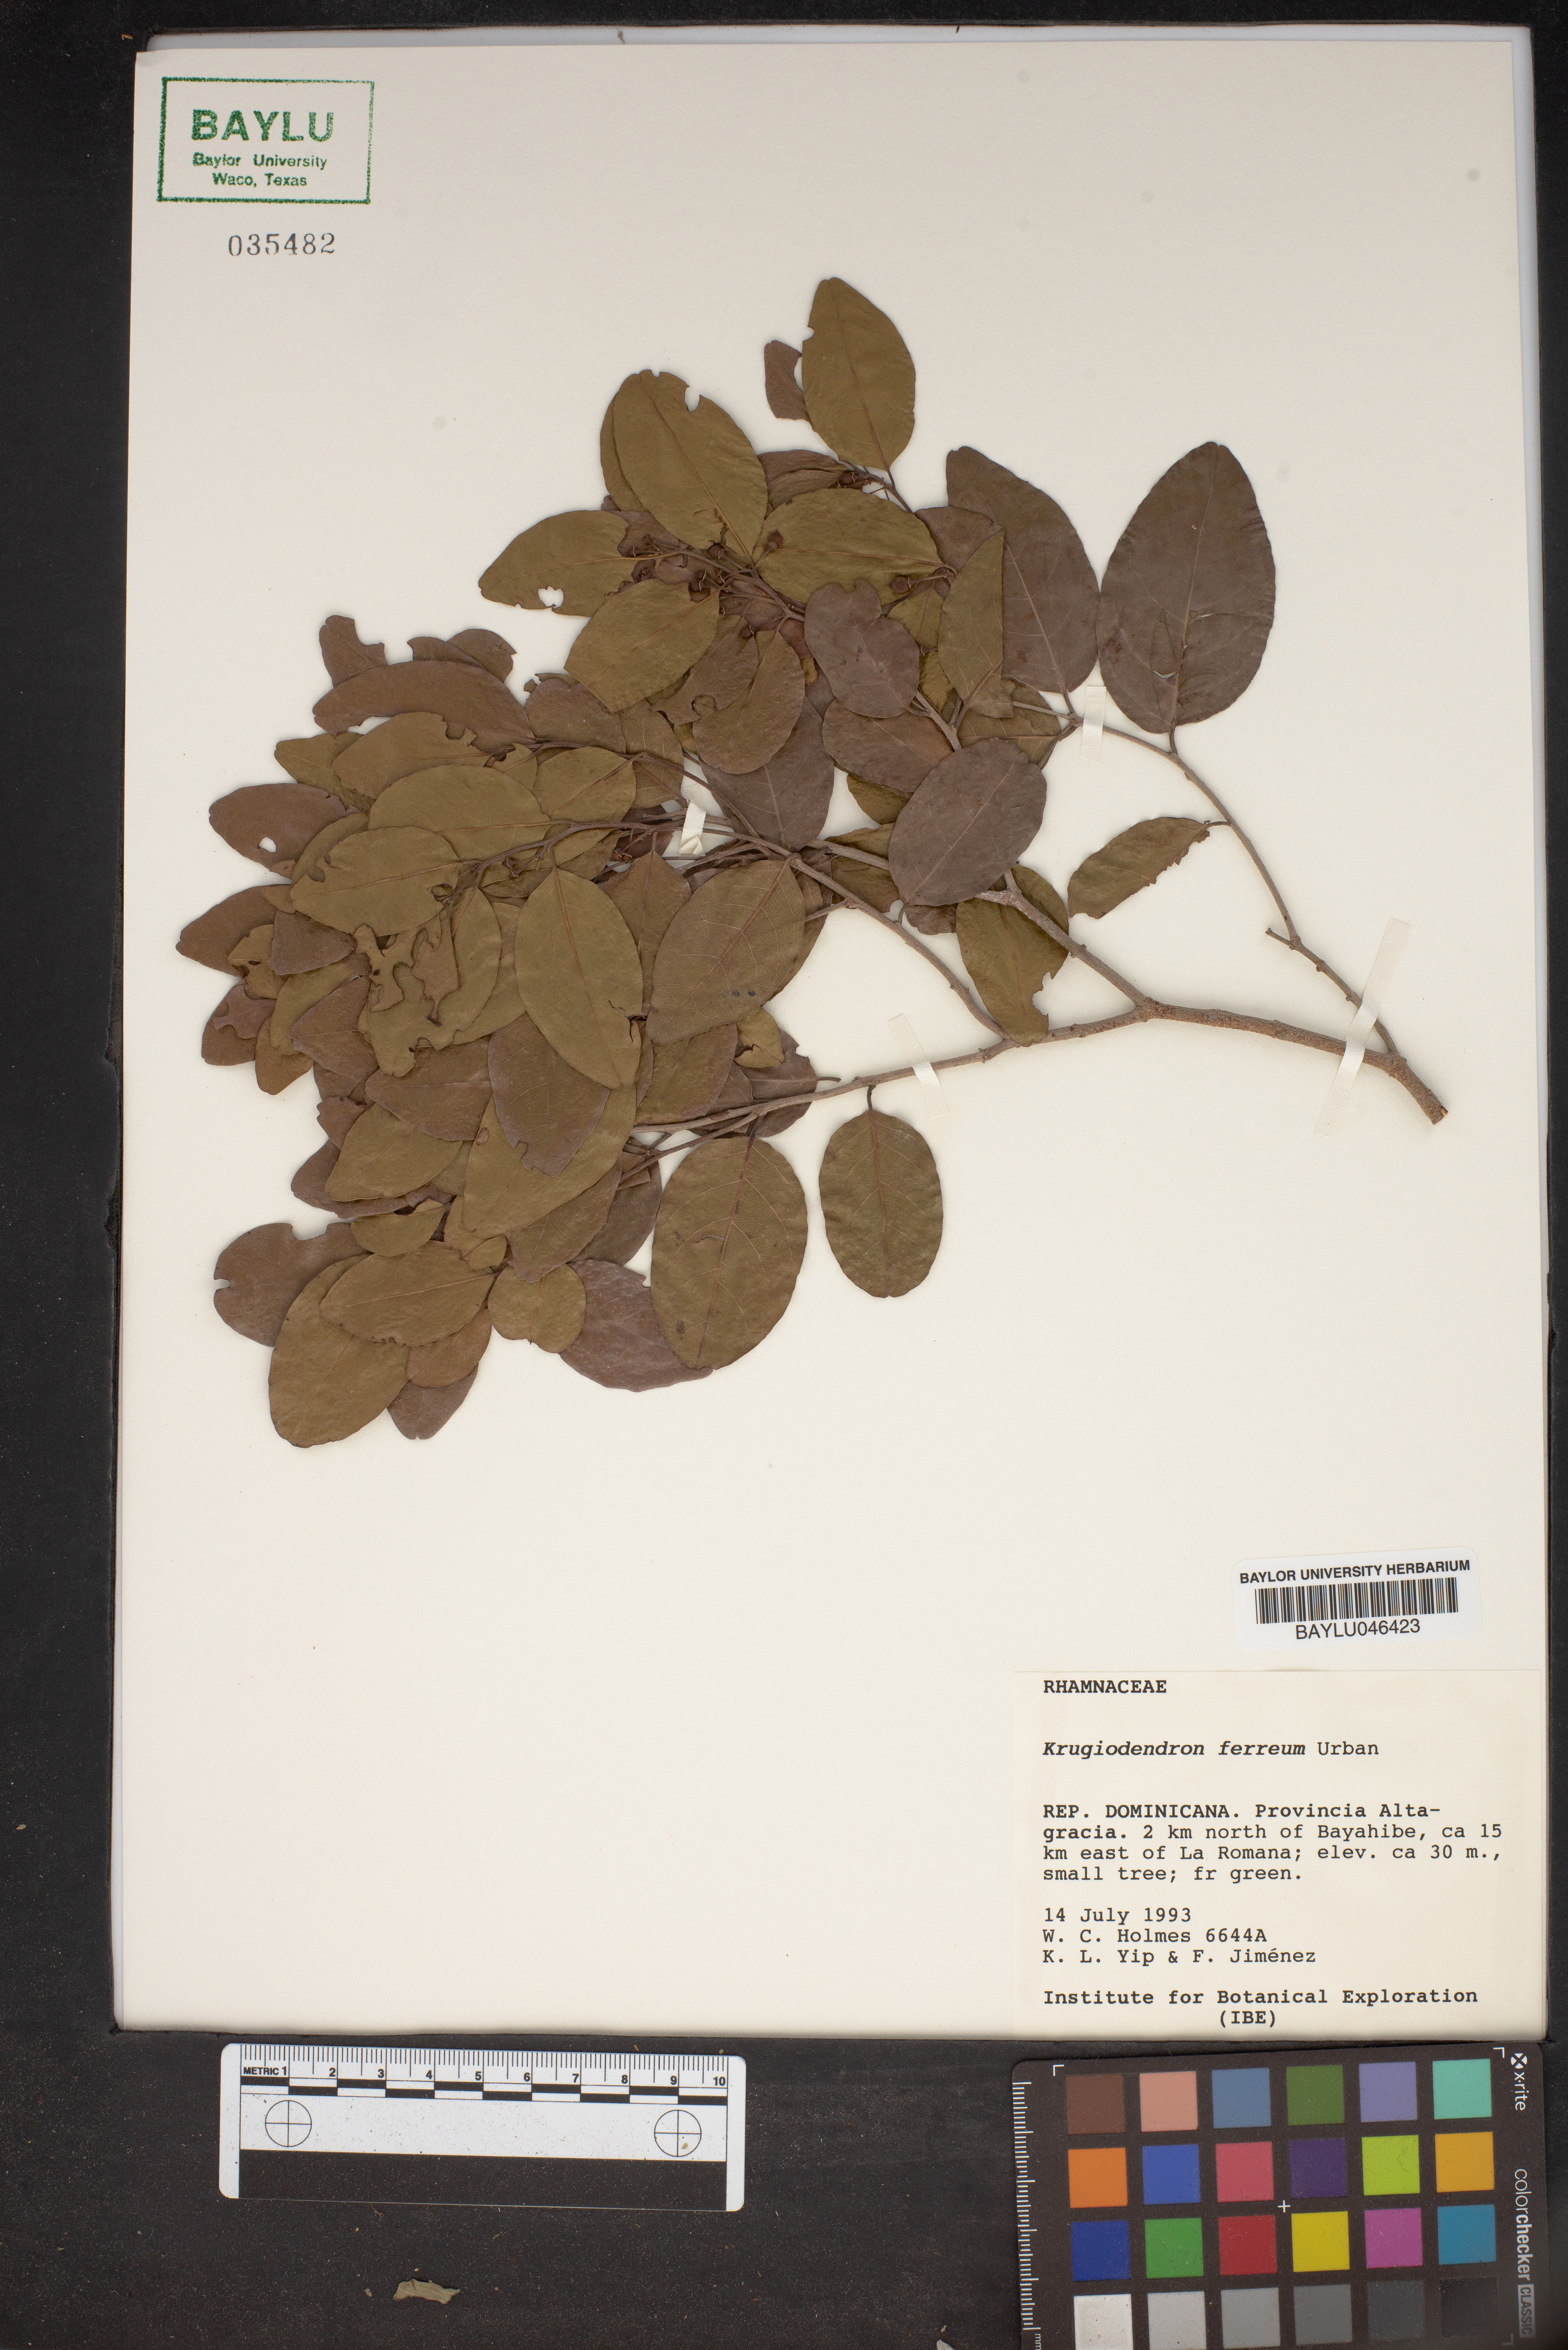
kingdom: Plantae
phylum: Tracheophyta
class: Magnoliopsida
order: Rosales
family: Rhamnaceae
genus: Krugiodendron
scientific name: Krugiodendron ferreum
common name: Iron wood
